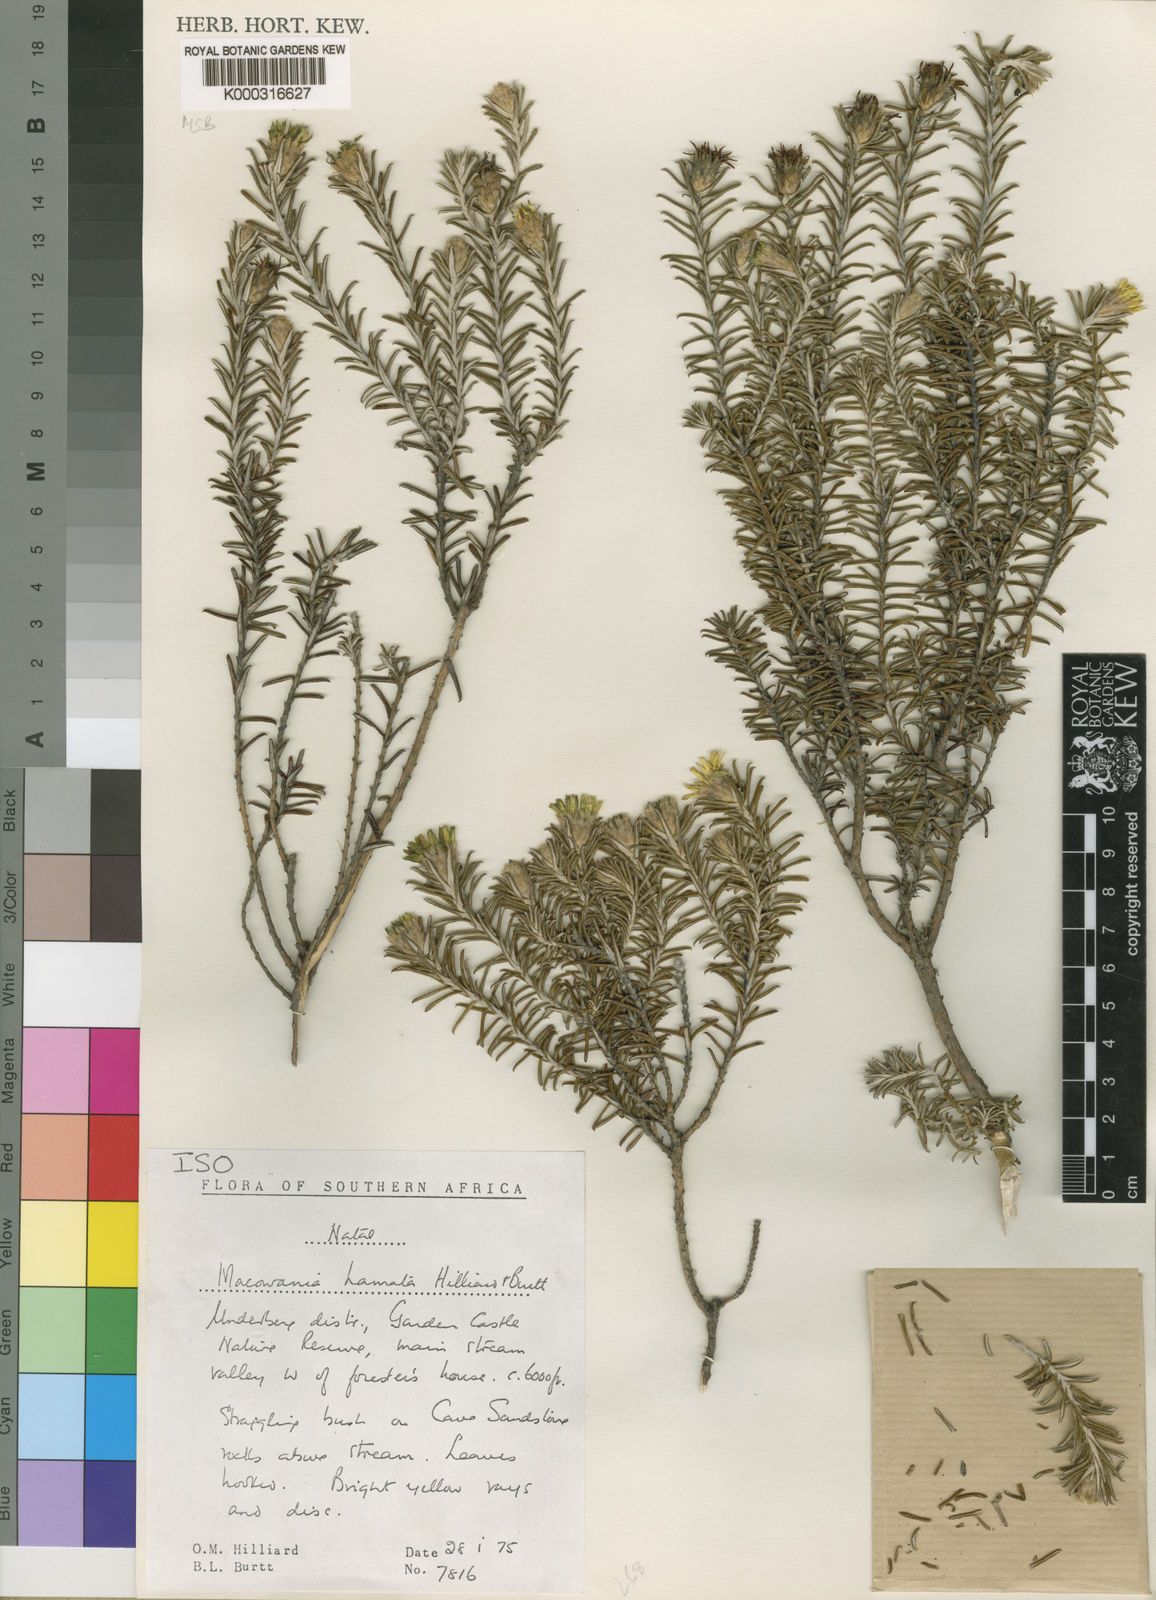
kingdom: Plantae
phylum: Tracheophyta
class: Magnoliopsida
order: Asterales
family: Asteraceae
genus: Arrowsmithia
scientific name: Arrowsmithia hamata
